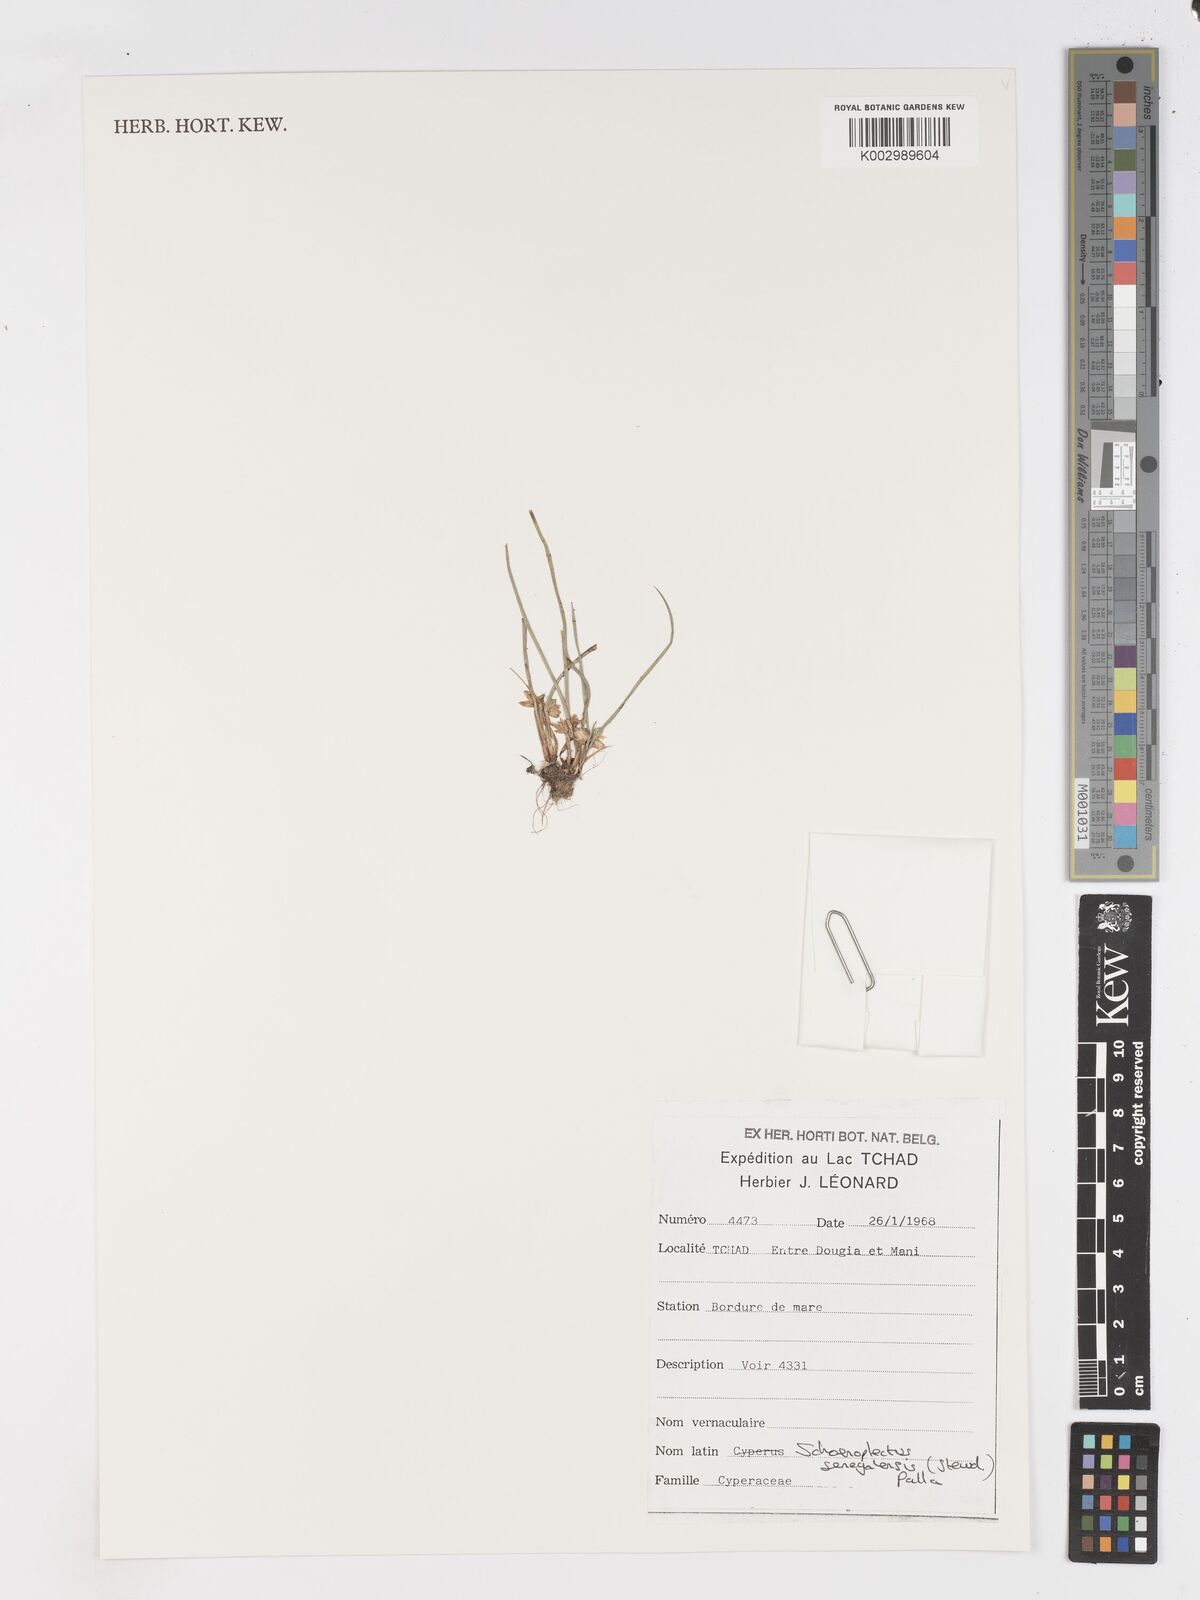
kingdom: Plantae
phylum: Tracheophyta
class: Liliopsida
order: Poales
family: Cyperaceae
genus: Schoenoplectiella
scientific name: Schoenoplectiella senegalensis
